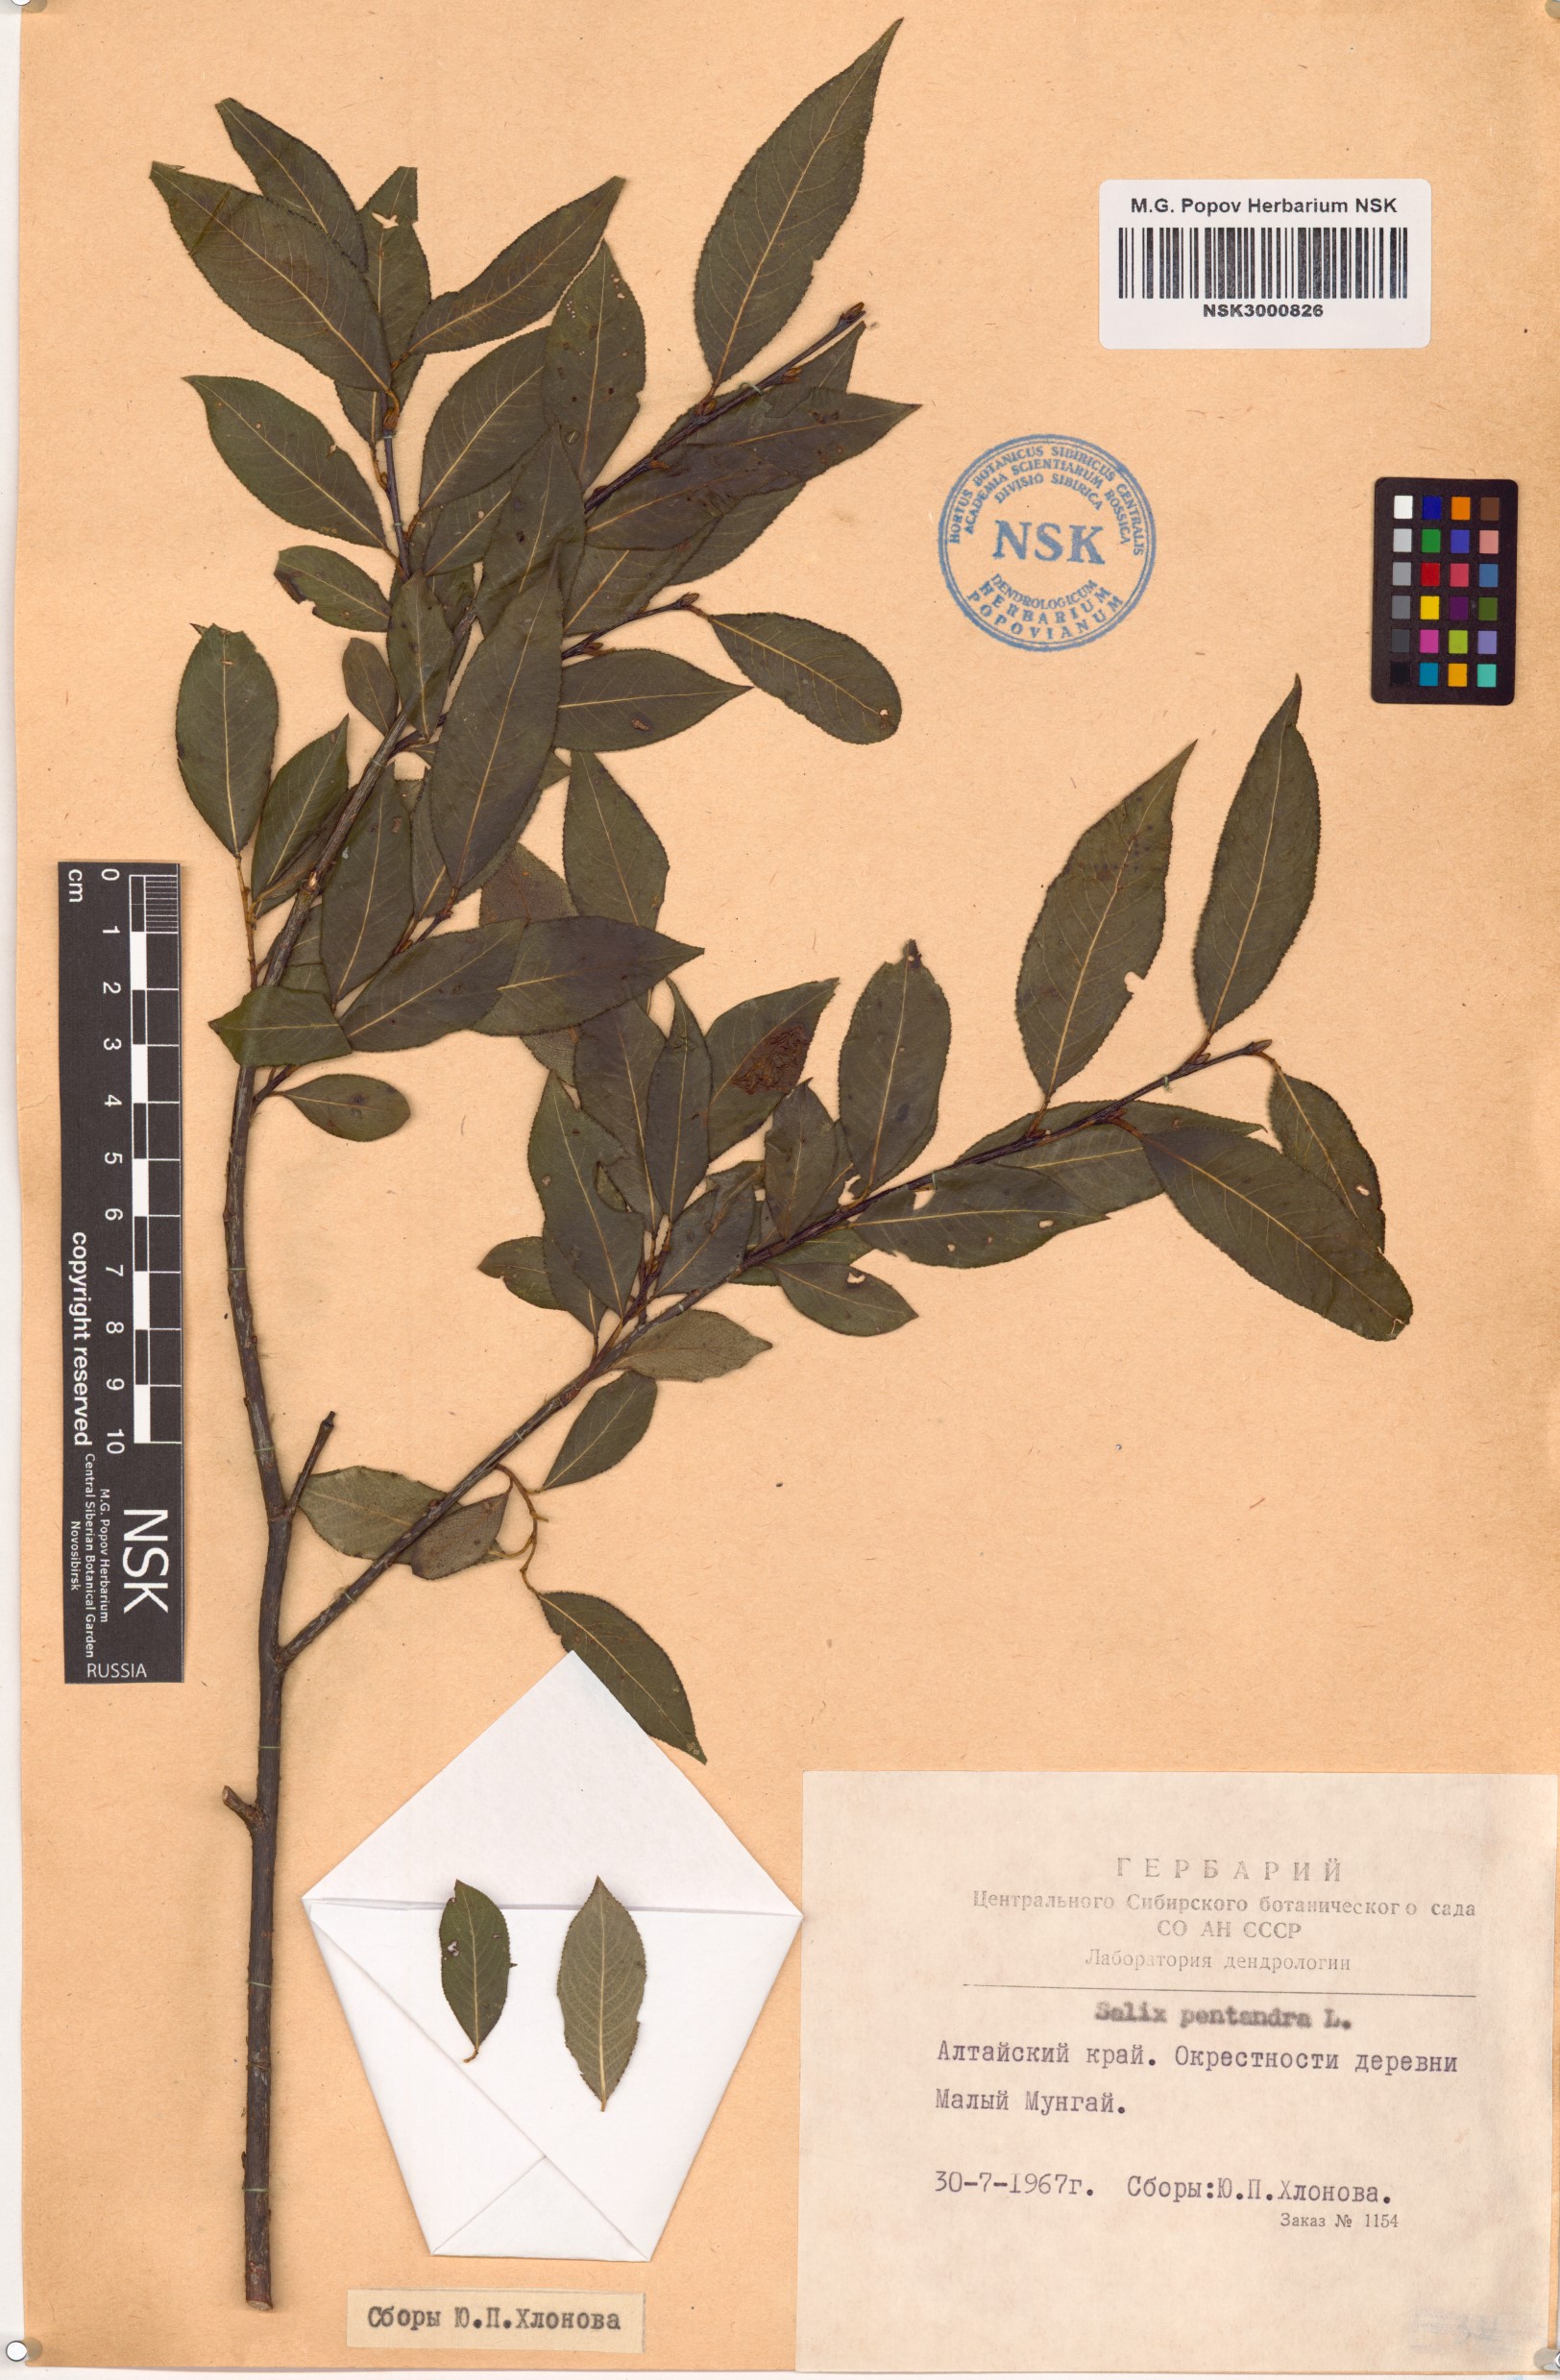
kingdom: Plantae
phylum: Tracheophyta
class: Magnoliopsida
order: Malpighiales
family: Salicaceae
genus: Salix
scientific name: Salix pentandra
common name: Bay willow
